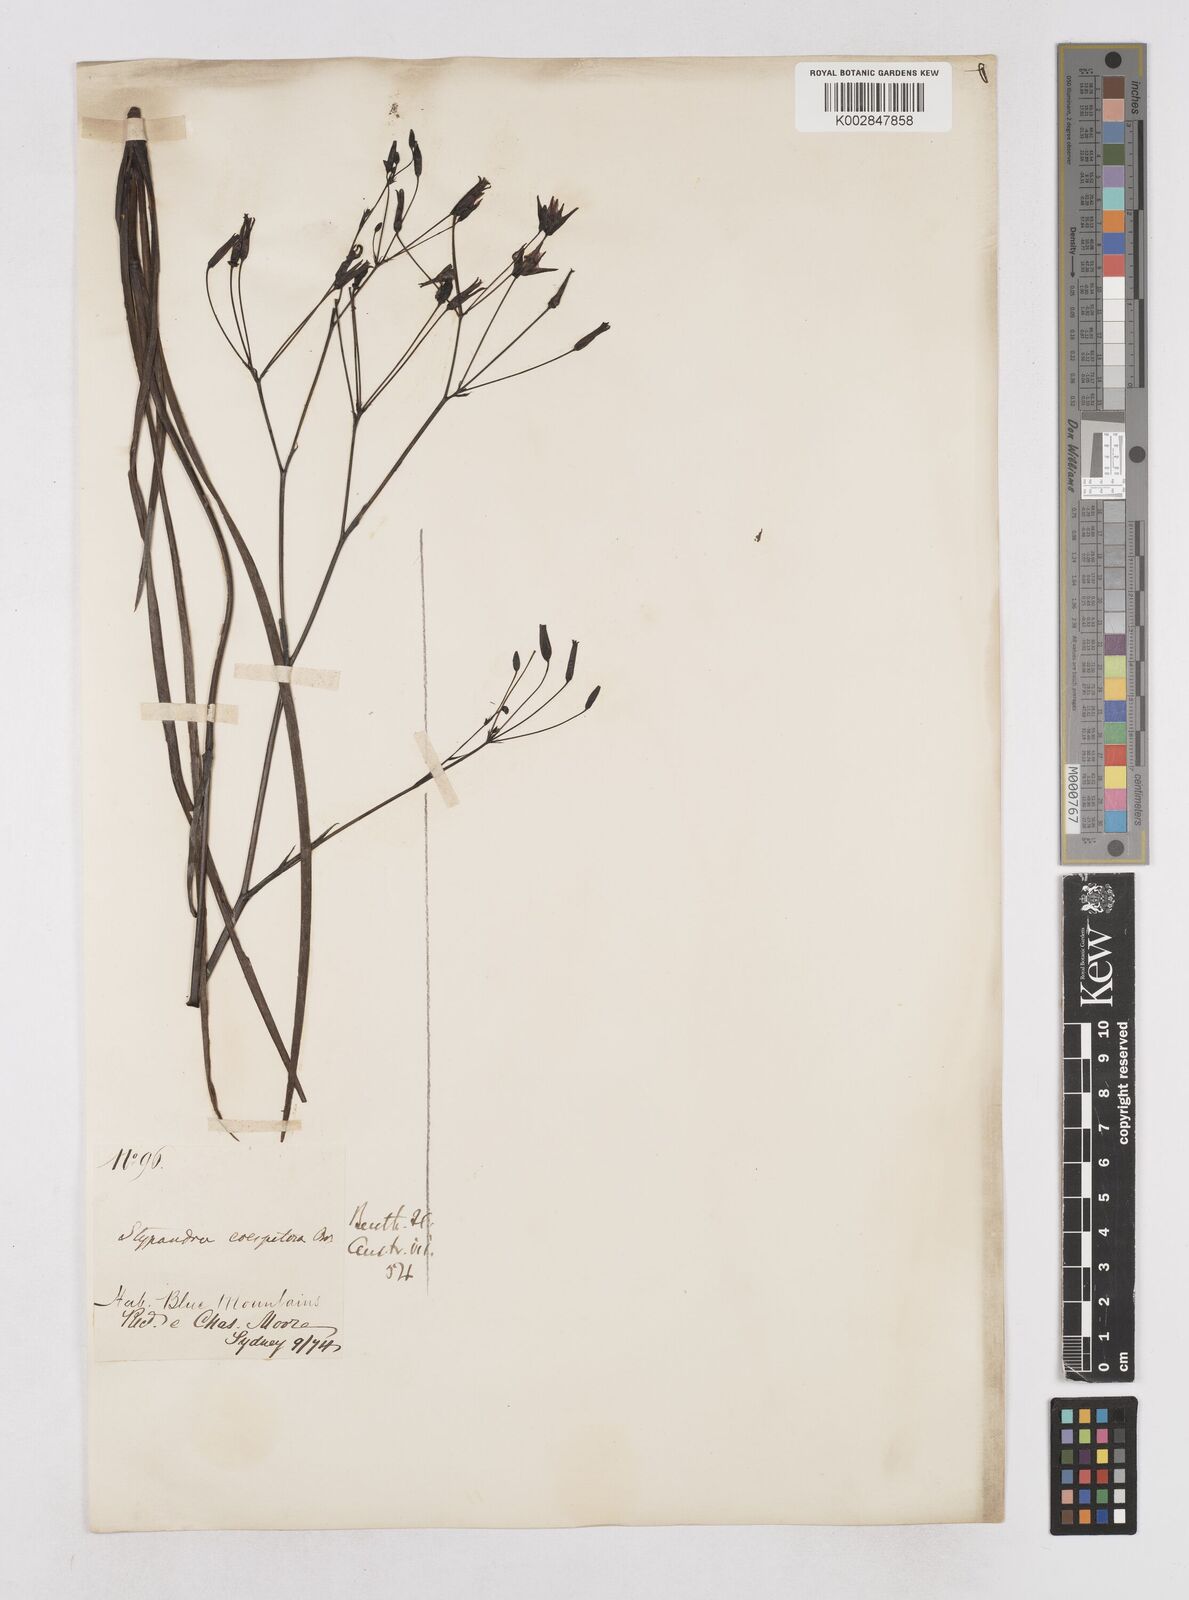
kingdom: Plantae
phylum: Tracheophyta
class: Liliopsida
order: Asparagales
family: Asphodelaceae
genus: Thelionema
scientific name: Thelionema caespitosum
